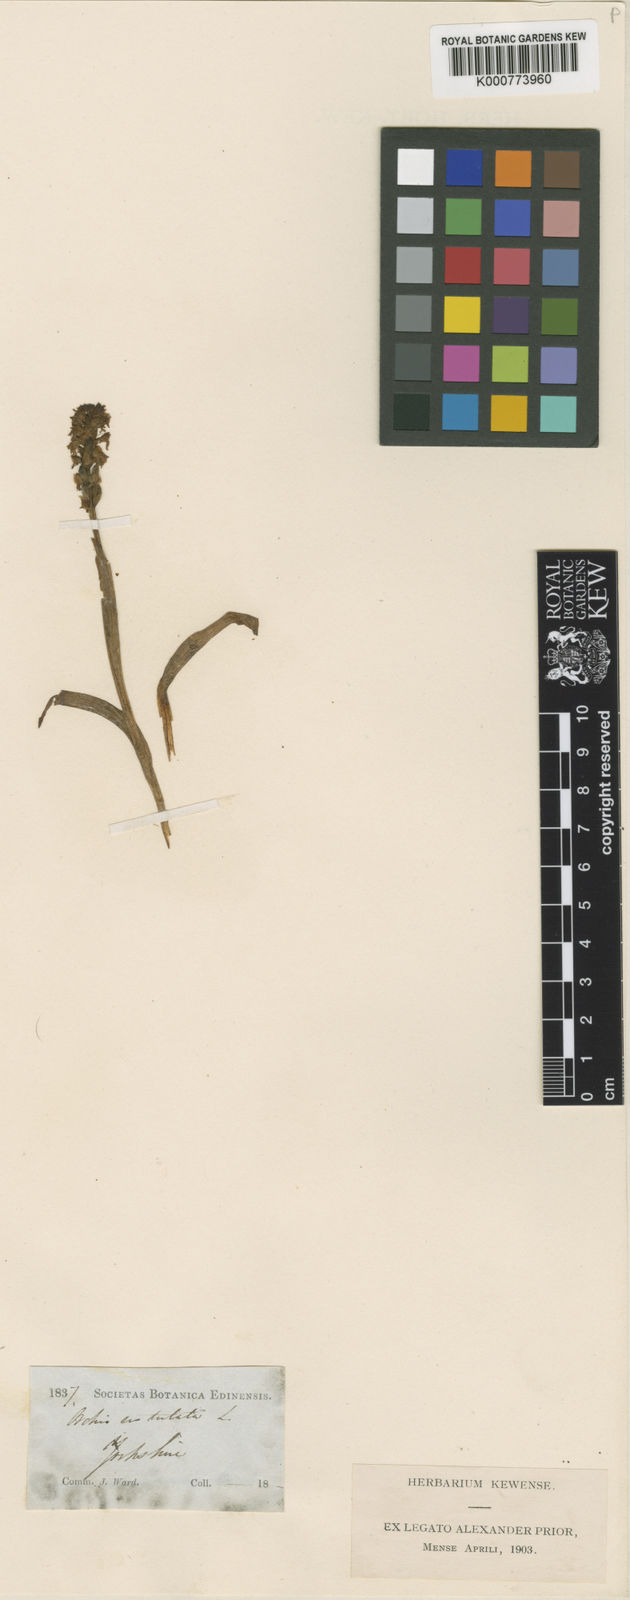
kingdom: Plantae
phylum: Tracheophyta
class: Liliopsida
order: Asparagales
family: Orchidaceae
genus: Neotinea
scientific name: Neotinea ustulata
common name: Burnt orchid
